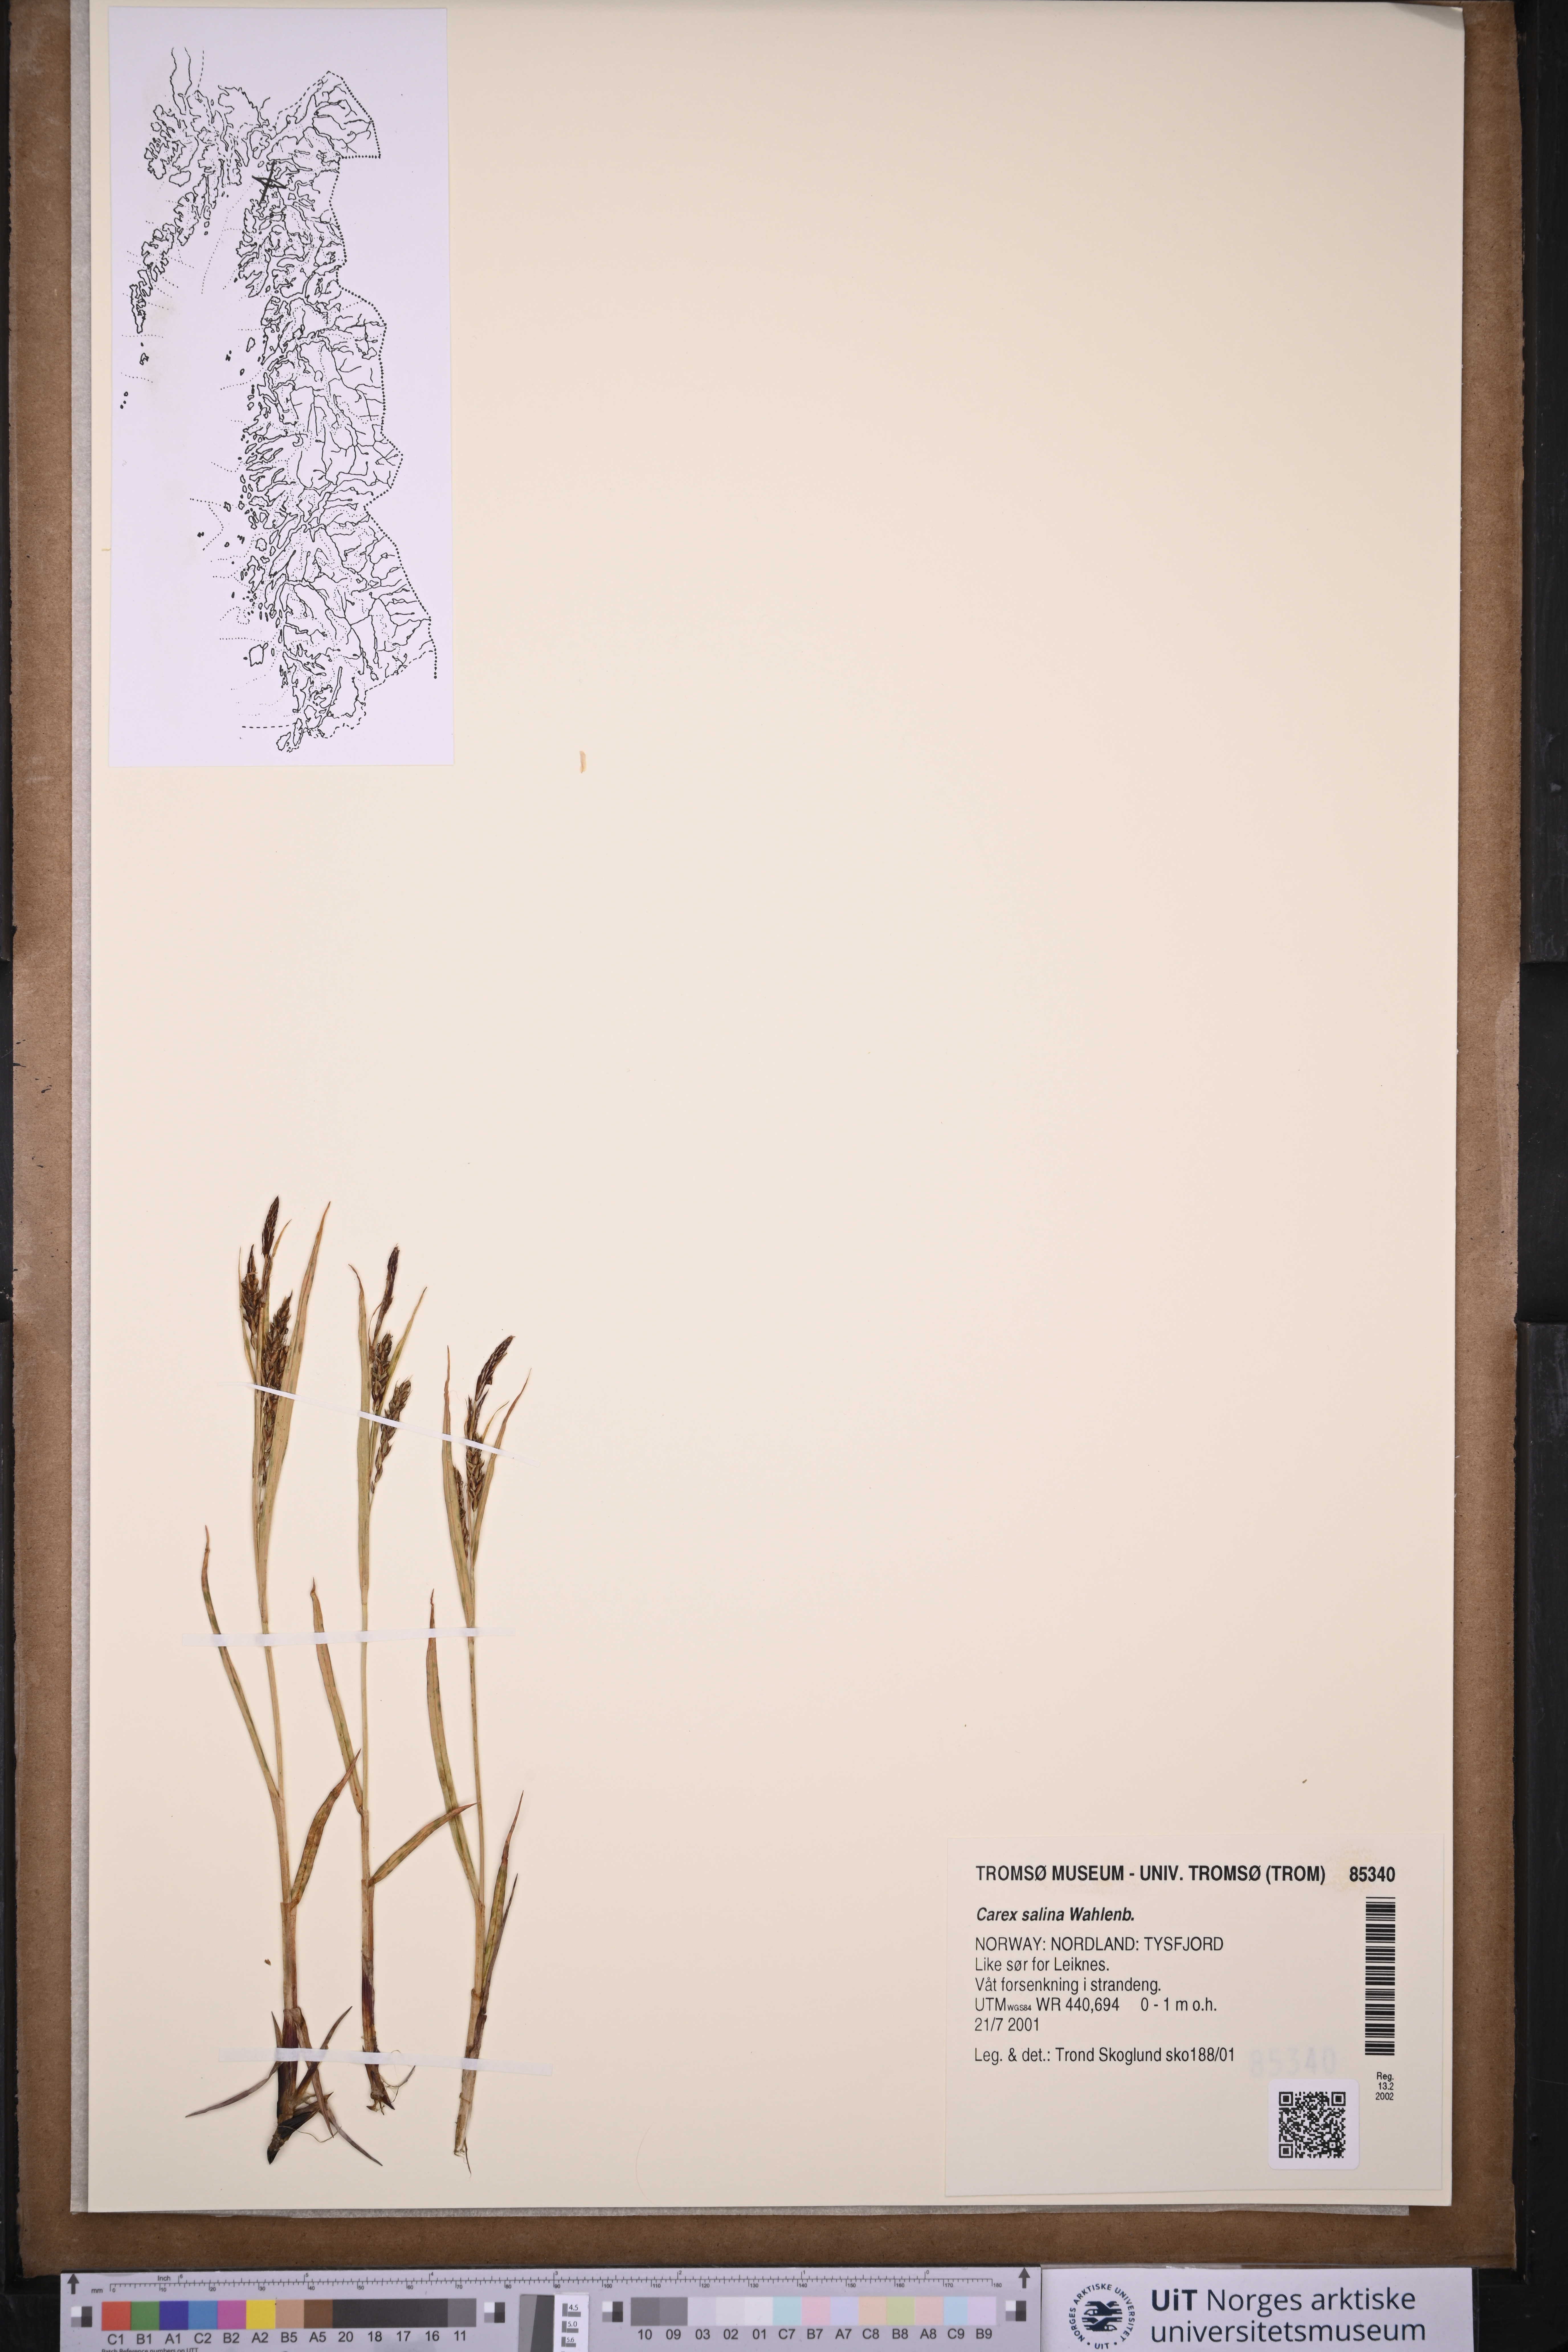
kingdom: Plantae
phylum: Tracheophyta
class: Liliopsida
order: Poales
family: Cyperaceae
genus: Carex
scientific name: Carex salina
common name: Saltmarsh sedge
